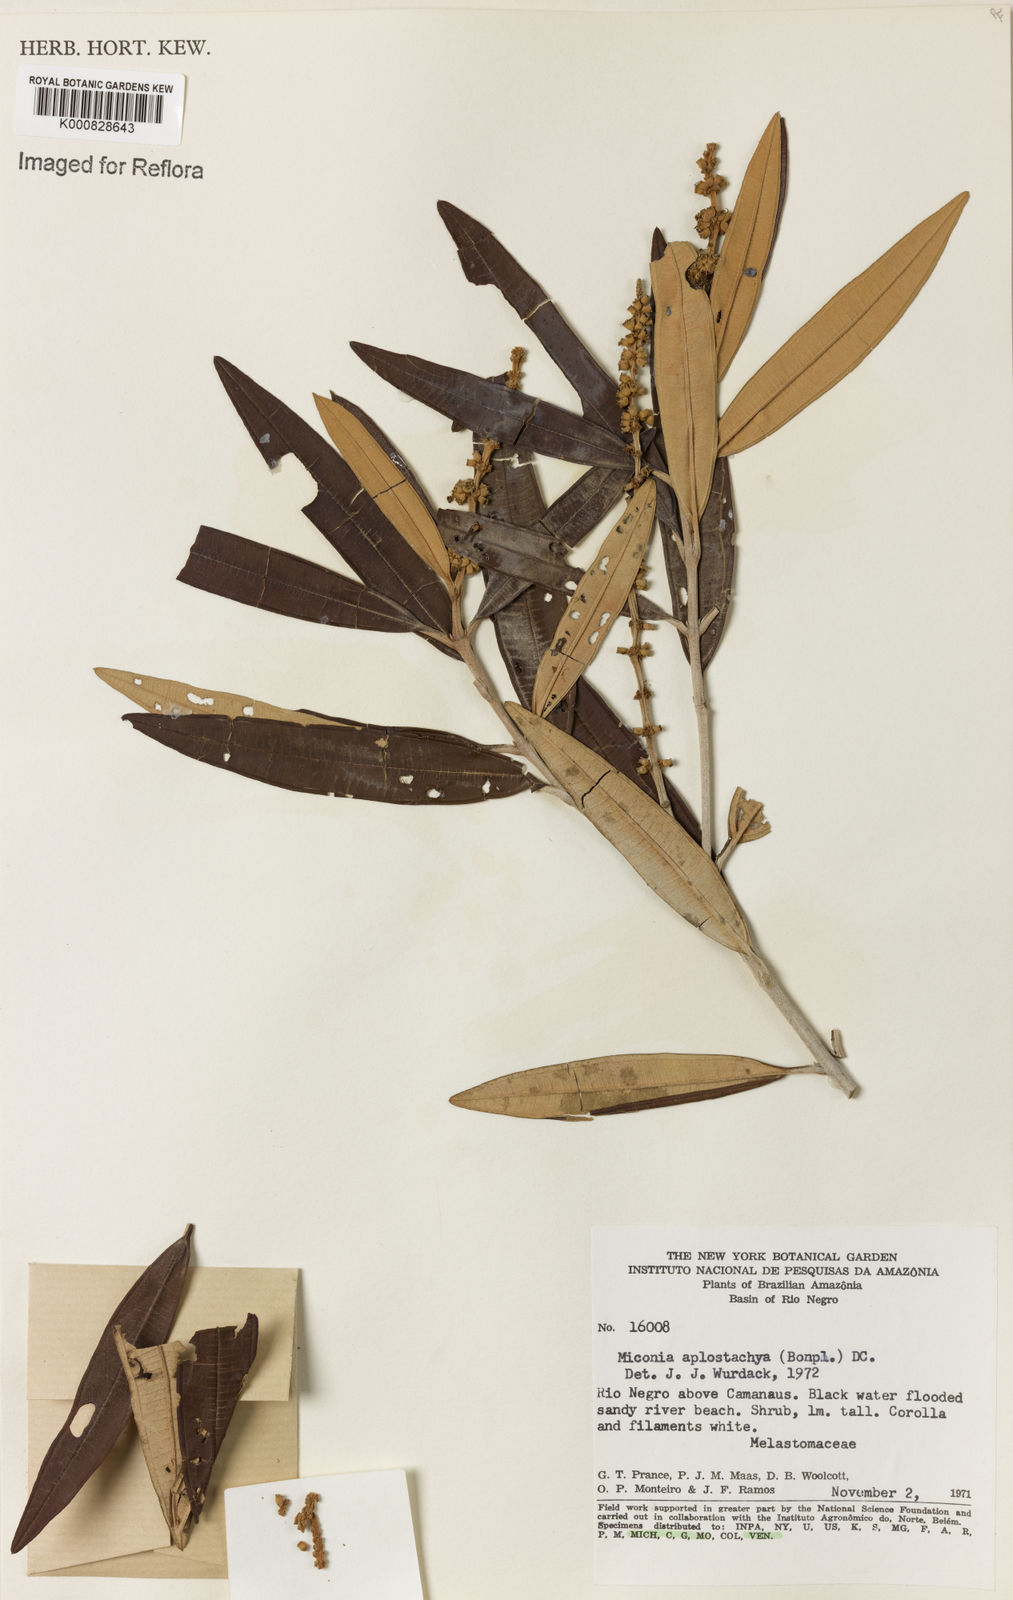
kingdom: Plantae
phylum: Tracheophyta
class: Magnoliopsida
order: Myrtales
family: Melastomataceae
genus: Miconia
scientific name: Miconia aplostachya
